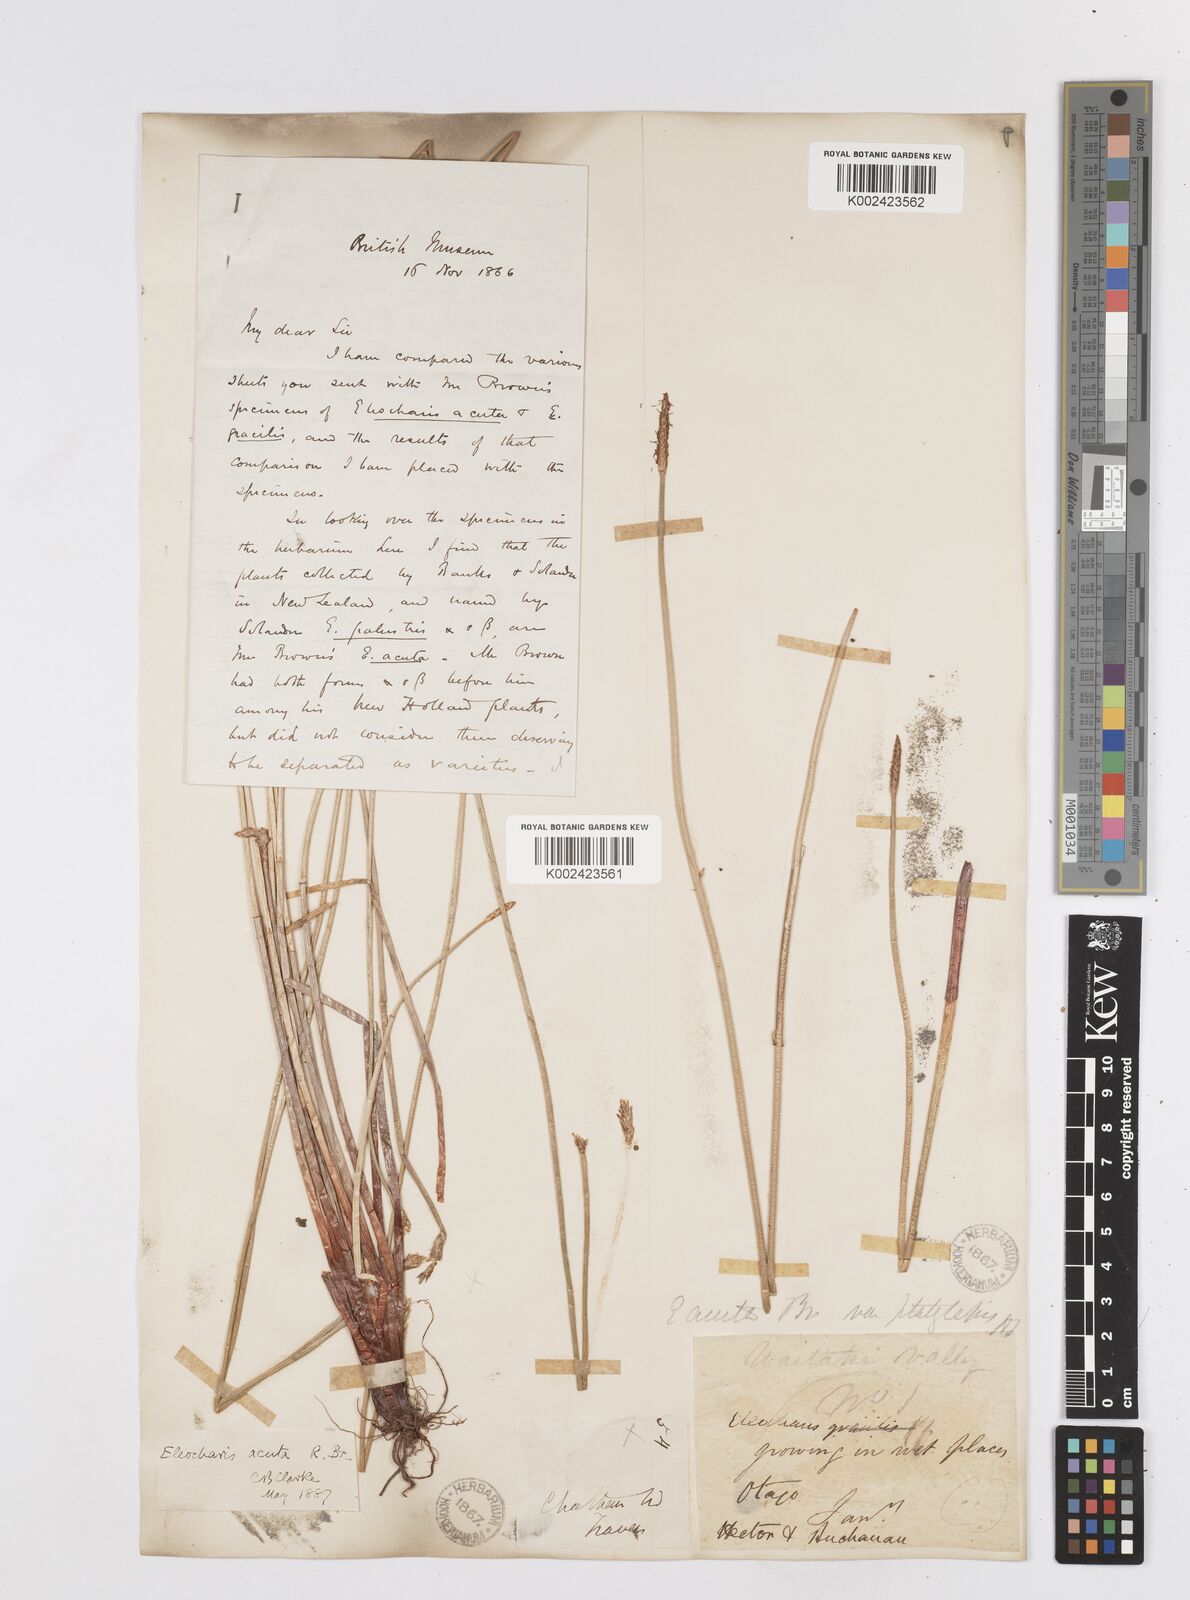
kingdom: Plantae
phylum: Tracheophyta
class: Liliopsida
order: Poales
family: Cyperaceae
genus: Eleocharis
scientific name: Eleocharis acuta
